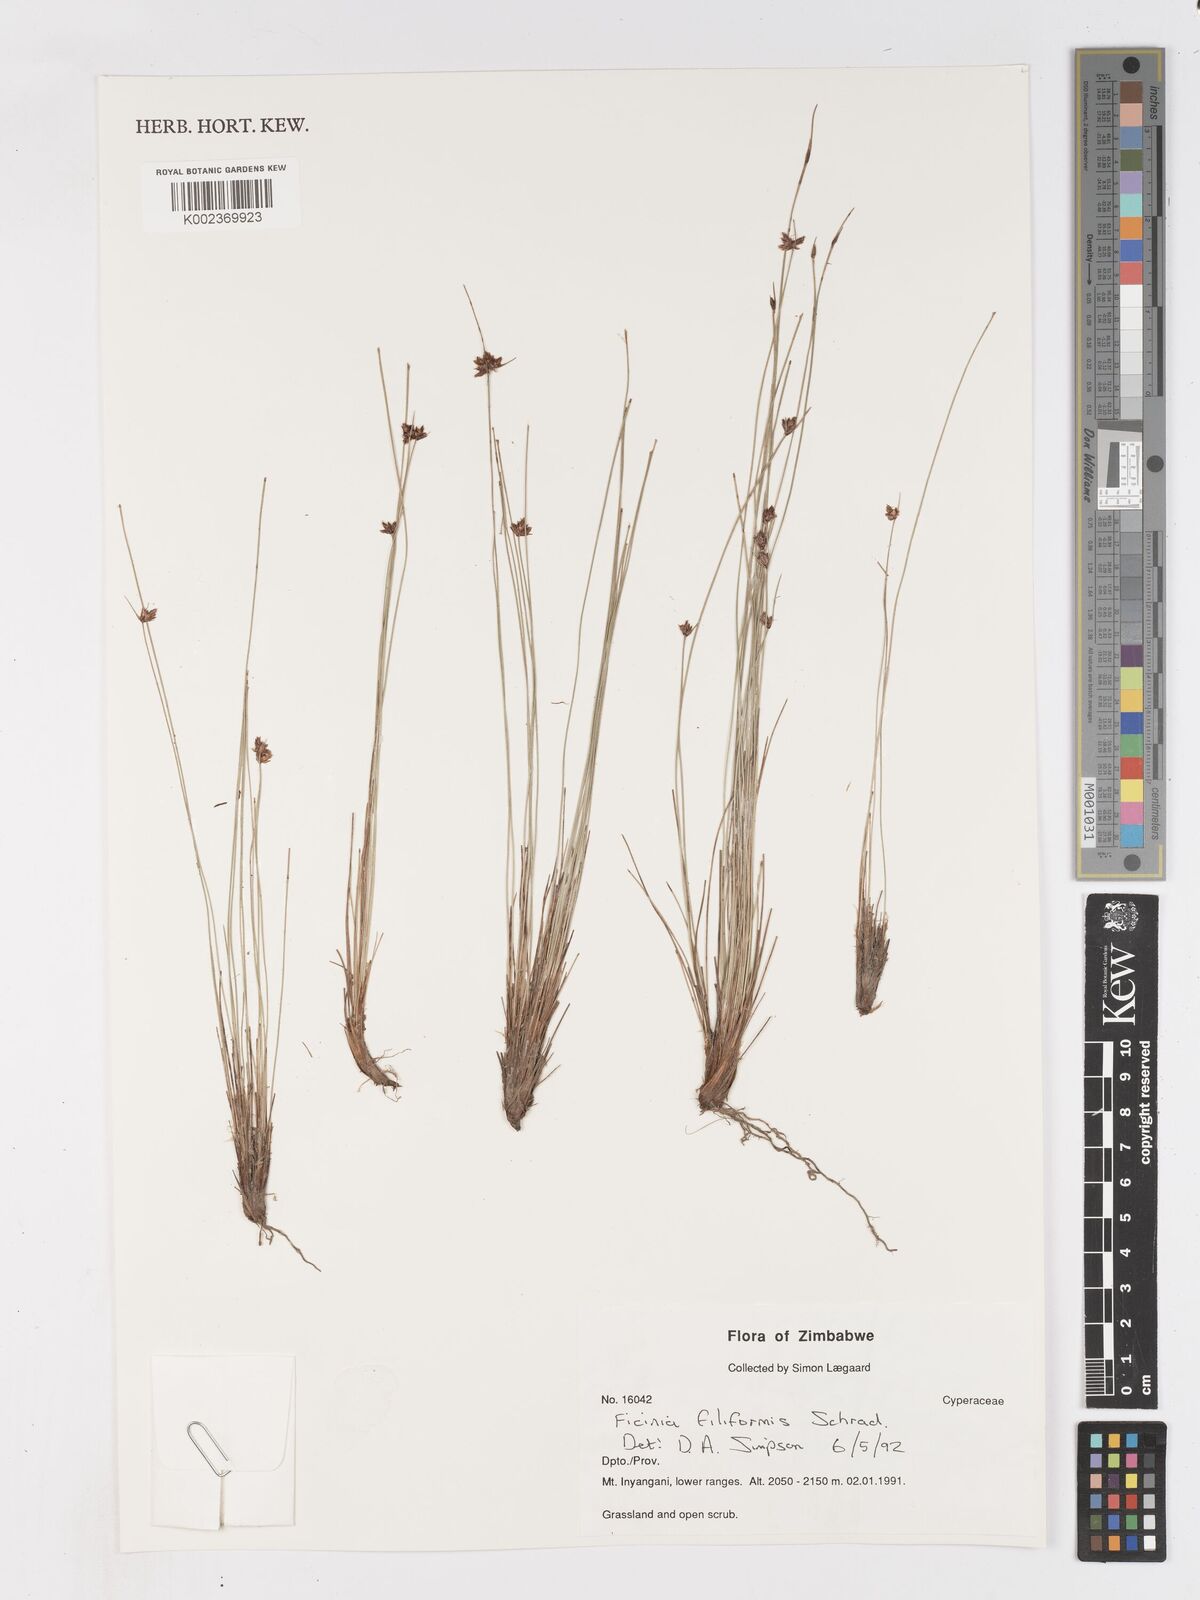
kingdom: Plantae
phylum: Tracheophyta
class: Liliopsida
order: Poales
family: Cyperaceae
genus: Ficinia
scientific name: Ficinia filiformis
